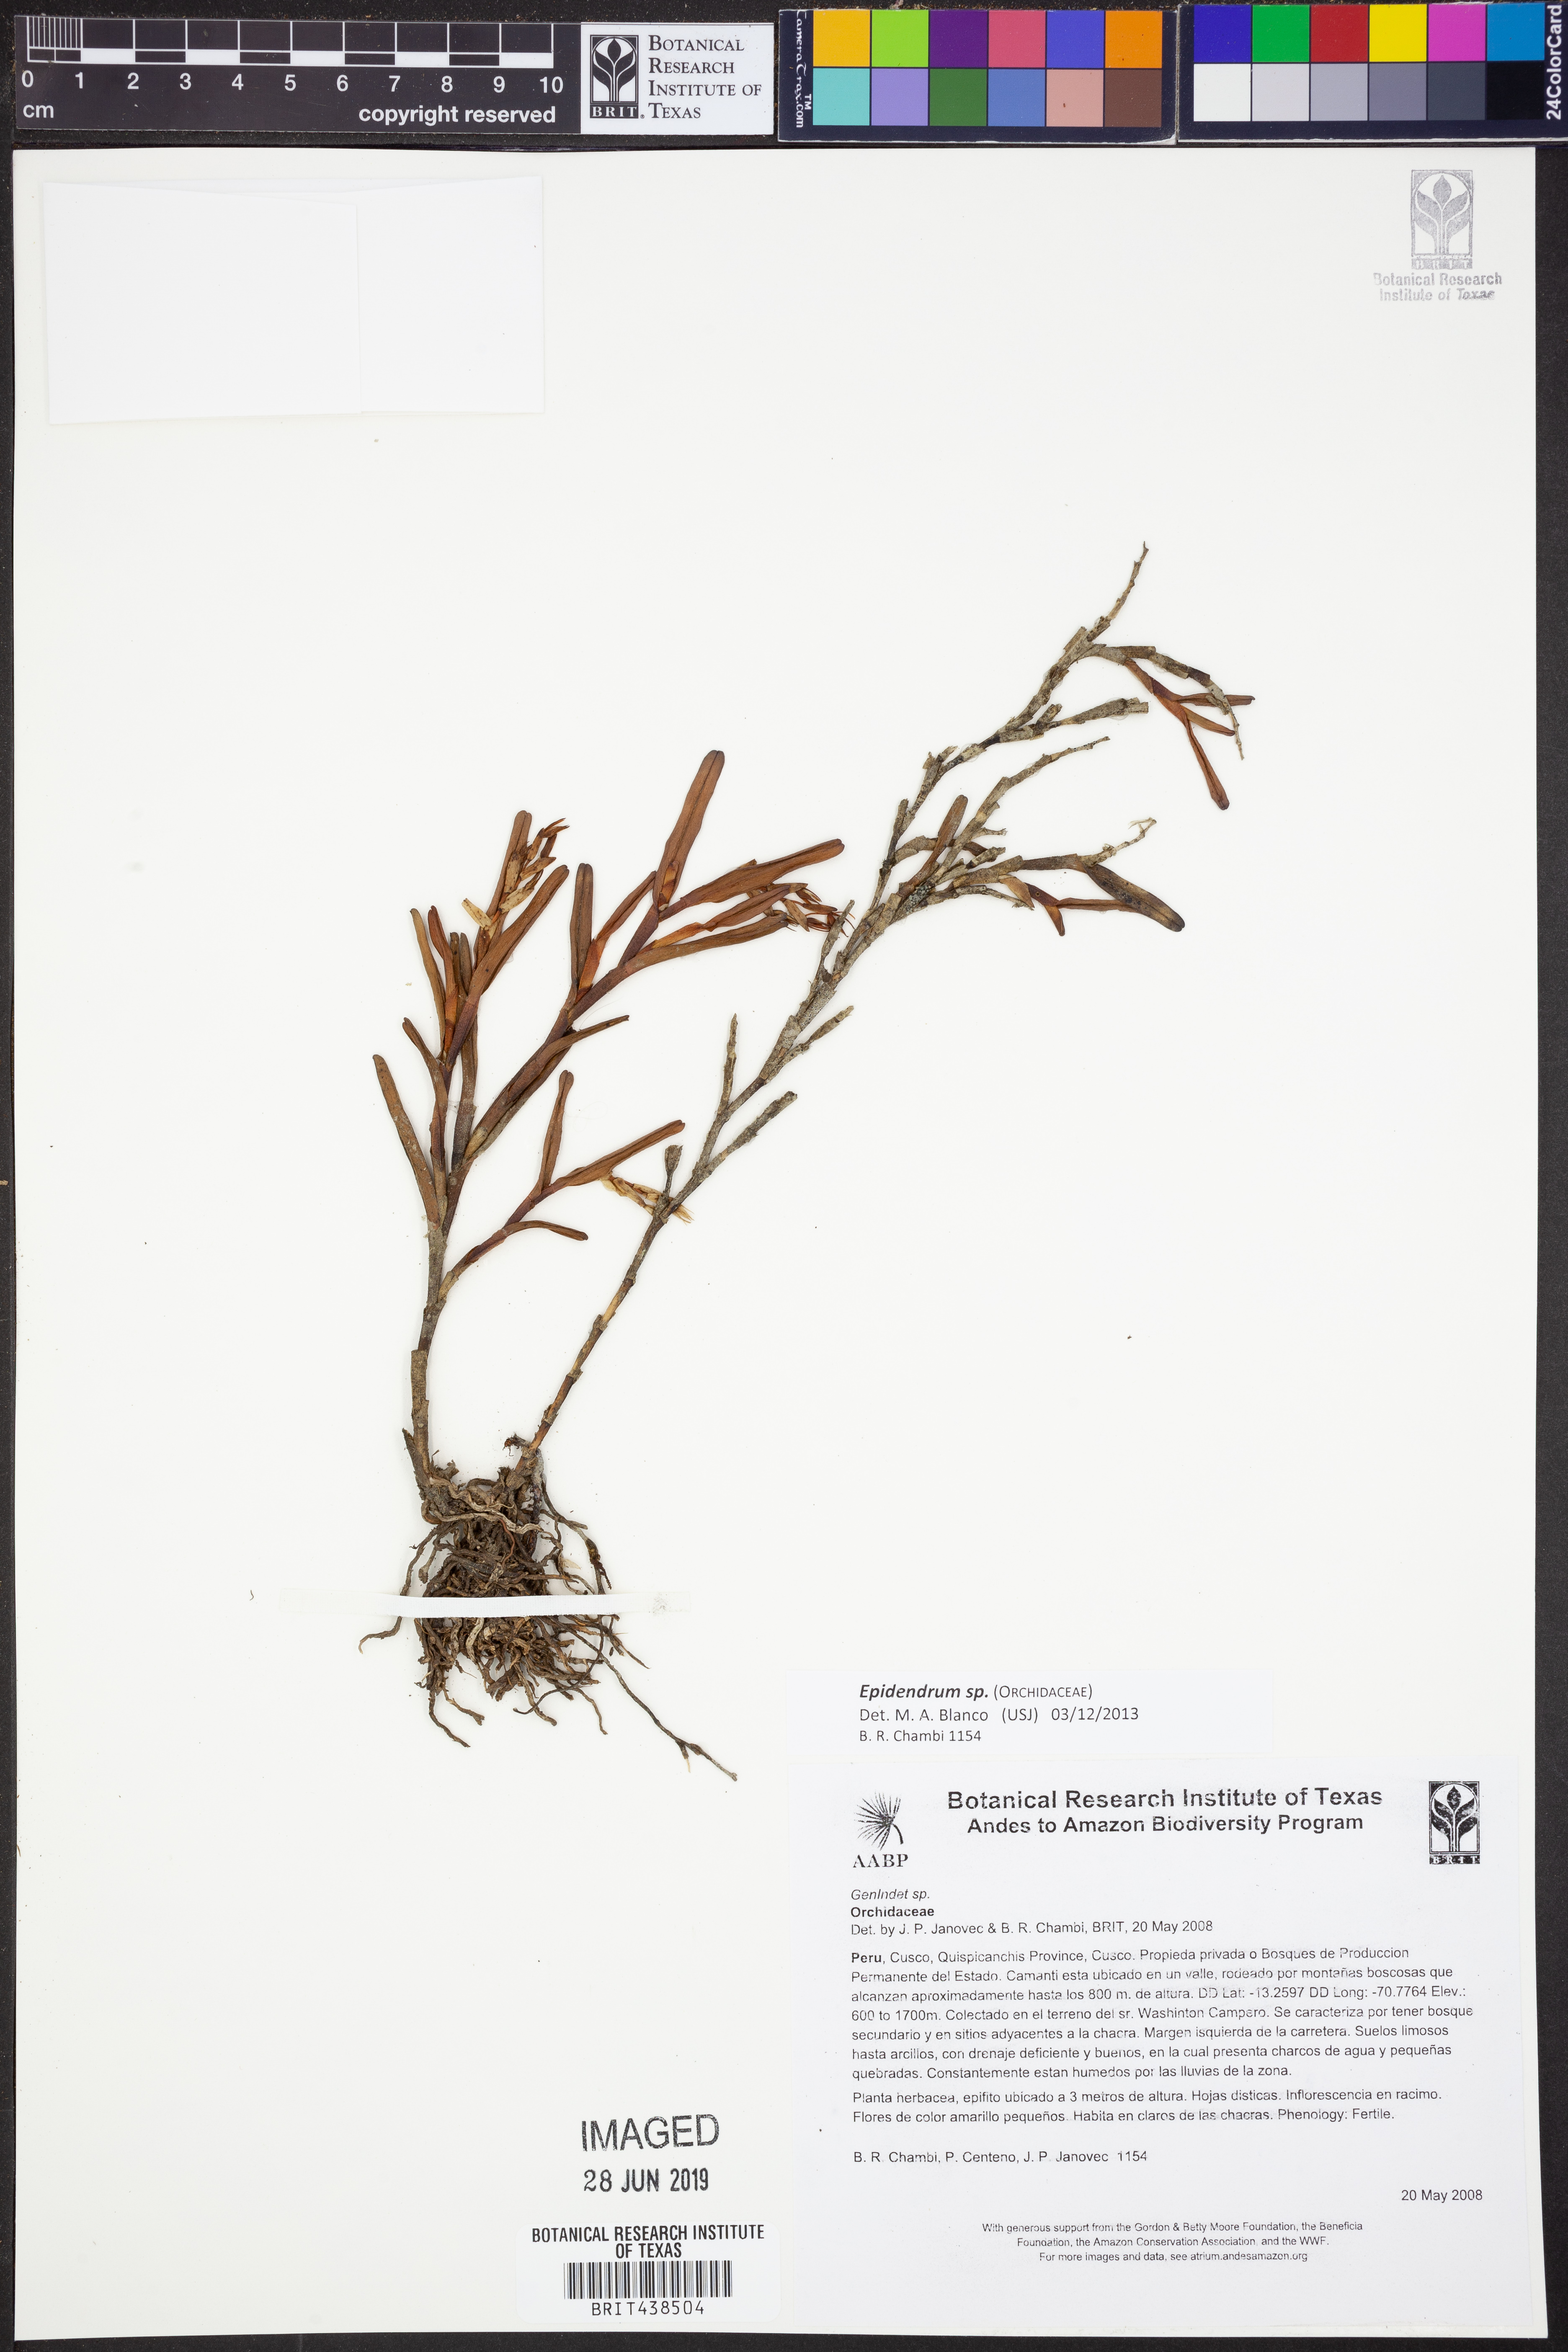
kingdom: Plantae
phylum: Tracheophyta
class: Liliopsida
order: Asparagales
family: Orchidaceae
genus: Epidendrum
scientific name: Epidendrum
